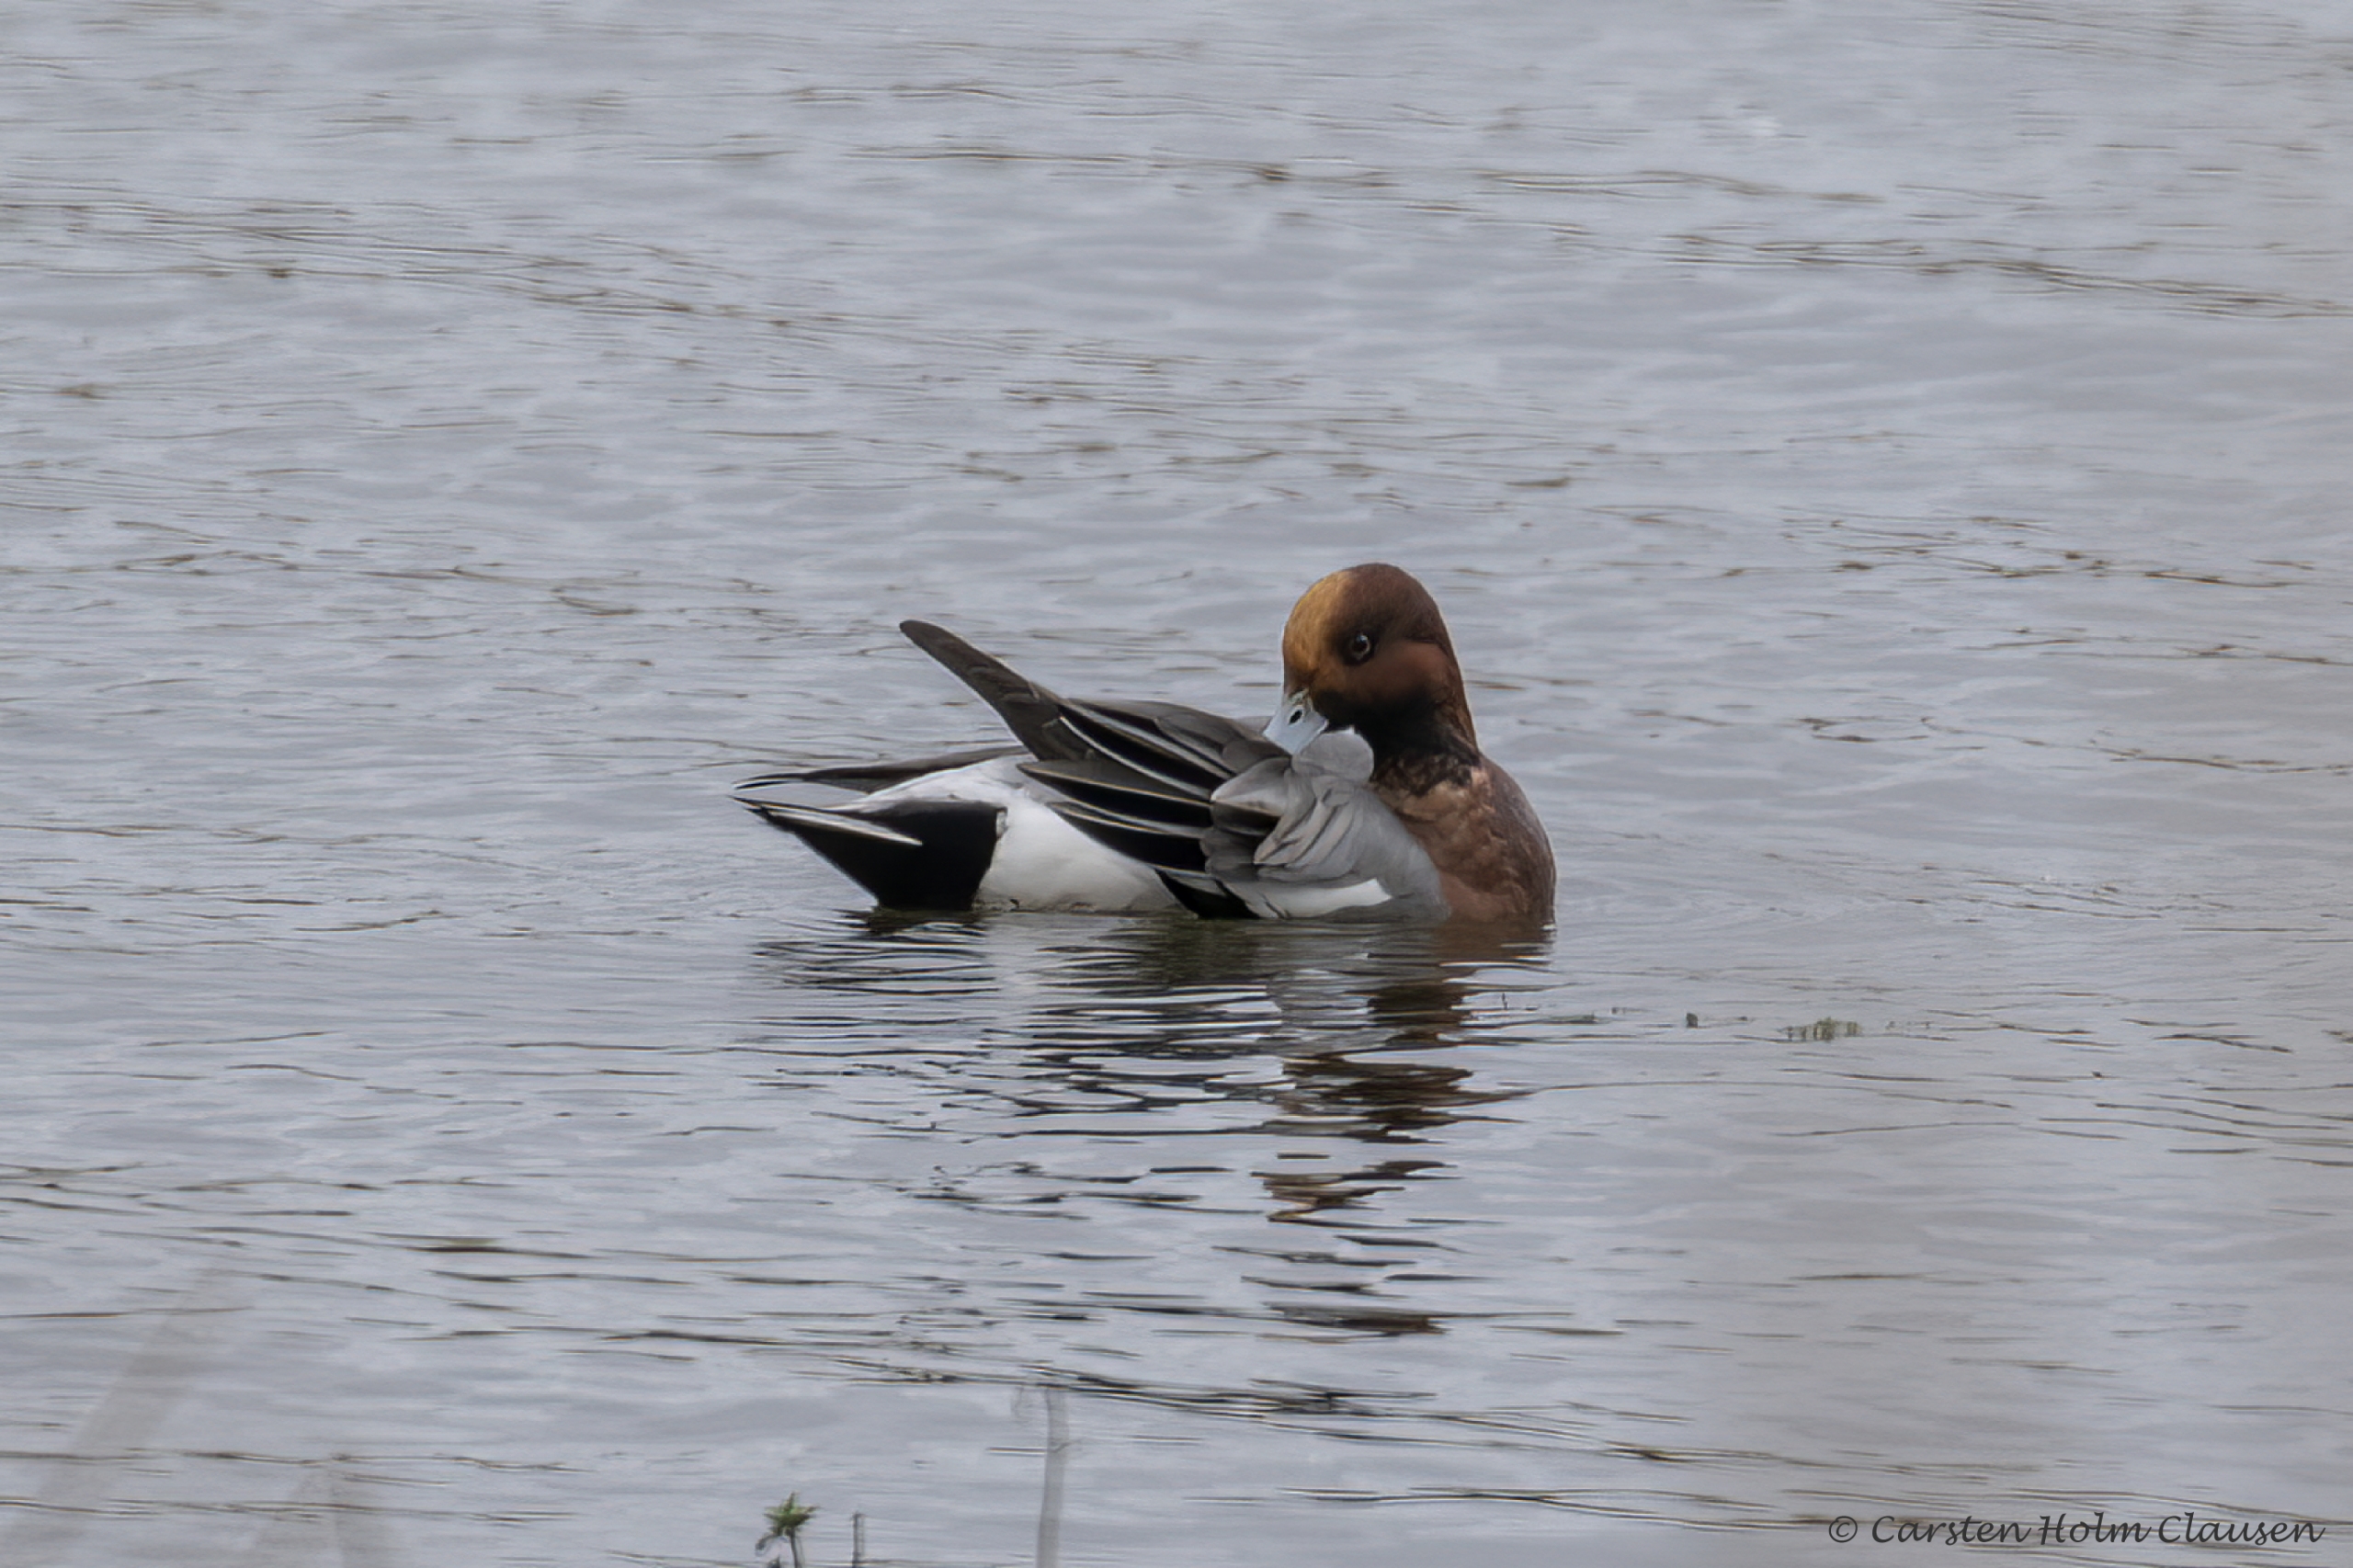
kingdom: Animalia
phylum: Chordata
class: Aves
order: Anseriformes
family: Anatidae
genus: Mareca
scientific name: Mareca penelope
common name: Pibeand
